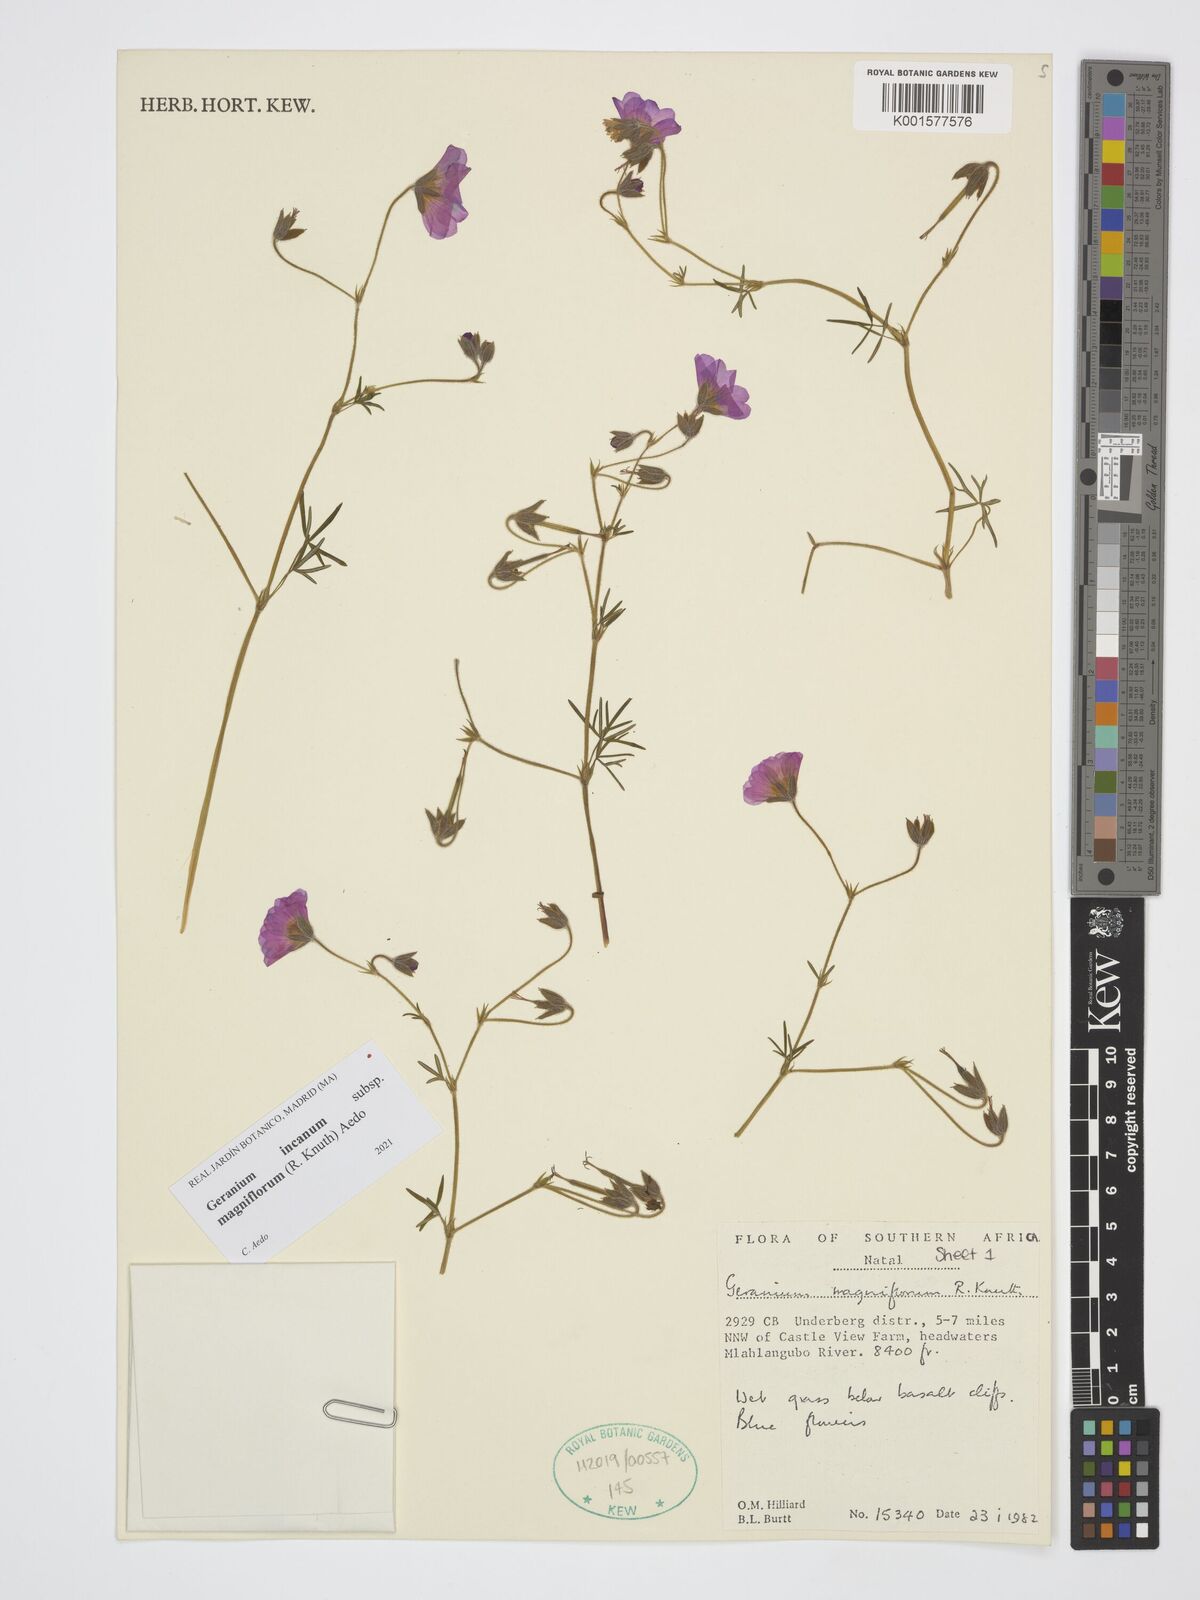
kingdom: Plantae
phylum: Tracheophyta
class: Magnoliopsida
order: Geraniales
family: Geraniaceae
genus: Geranium
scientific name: Geranium incanum
